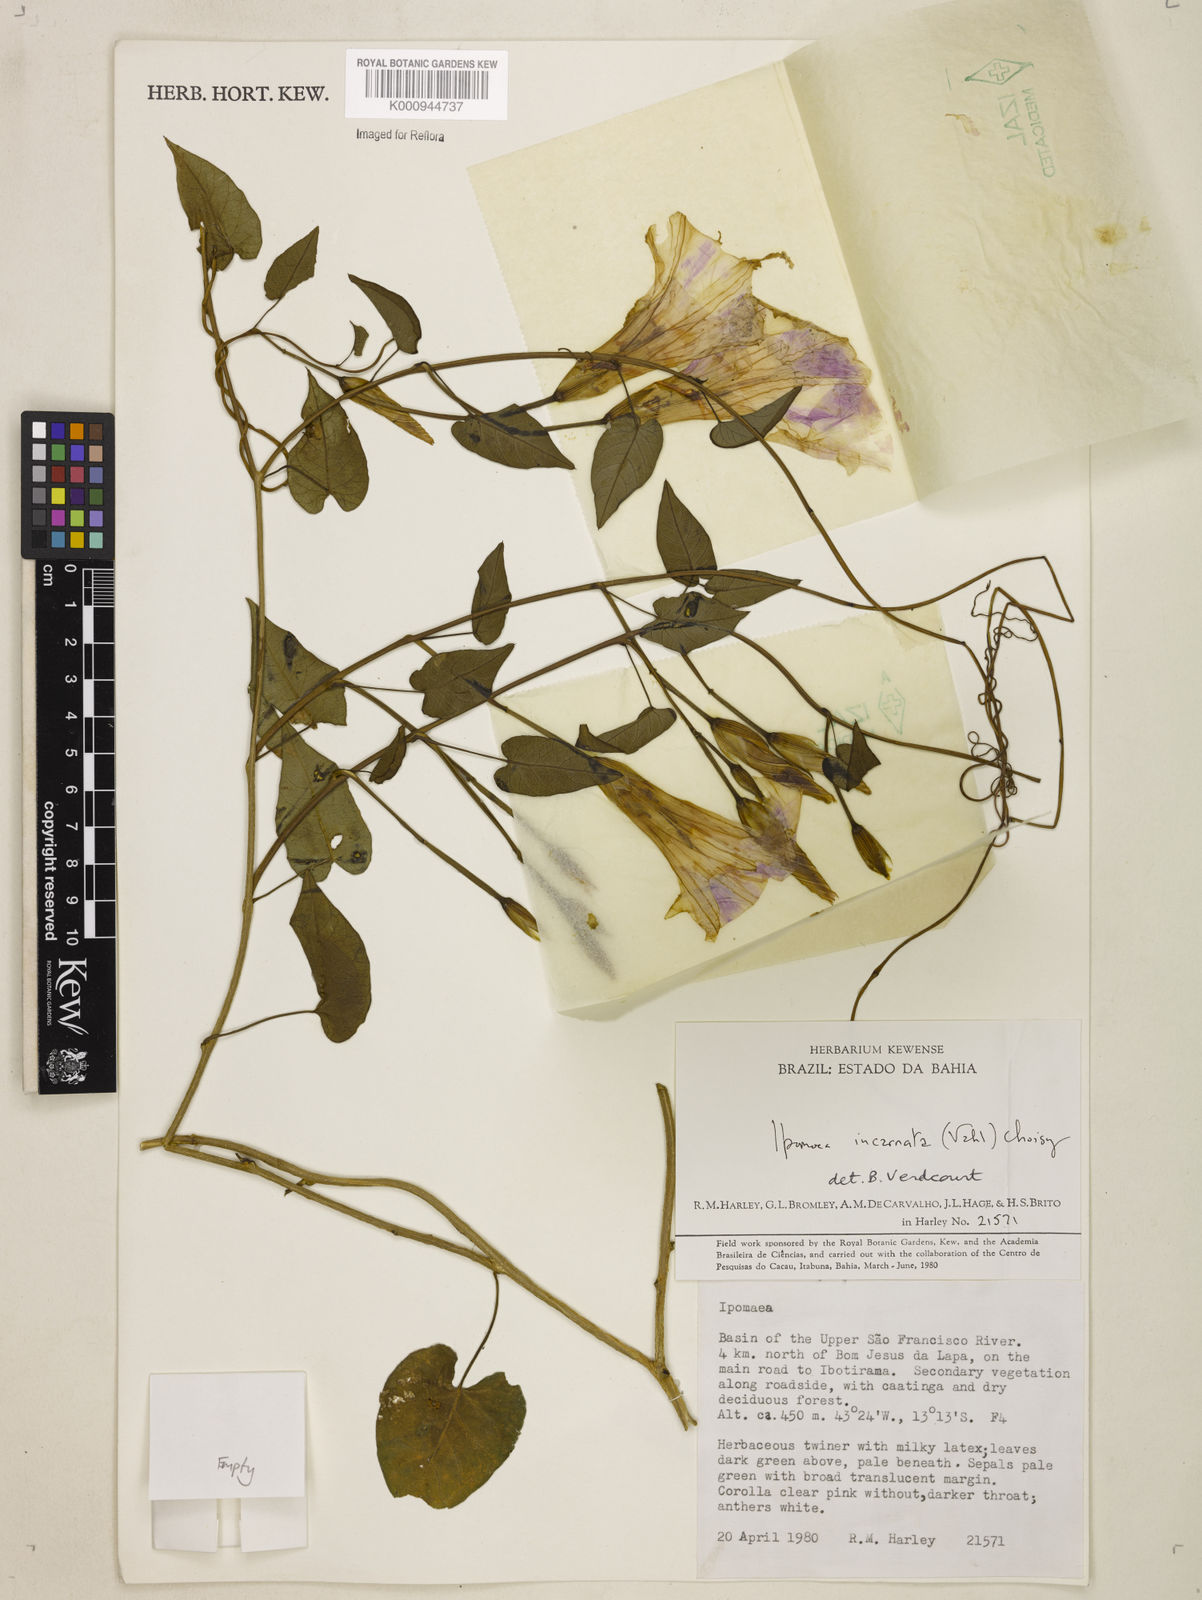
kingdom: Plantae
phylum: Tracheophyta
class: Magnoliopsida
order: Solanales
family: Convolvulaceae
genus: Ipomoea
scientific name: Ipomoea incarnata
